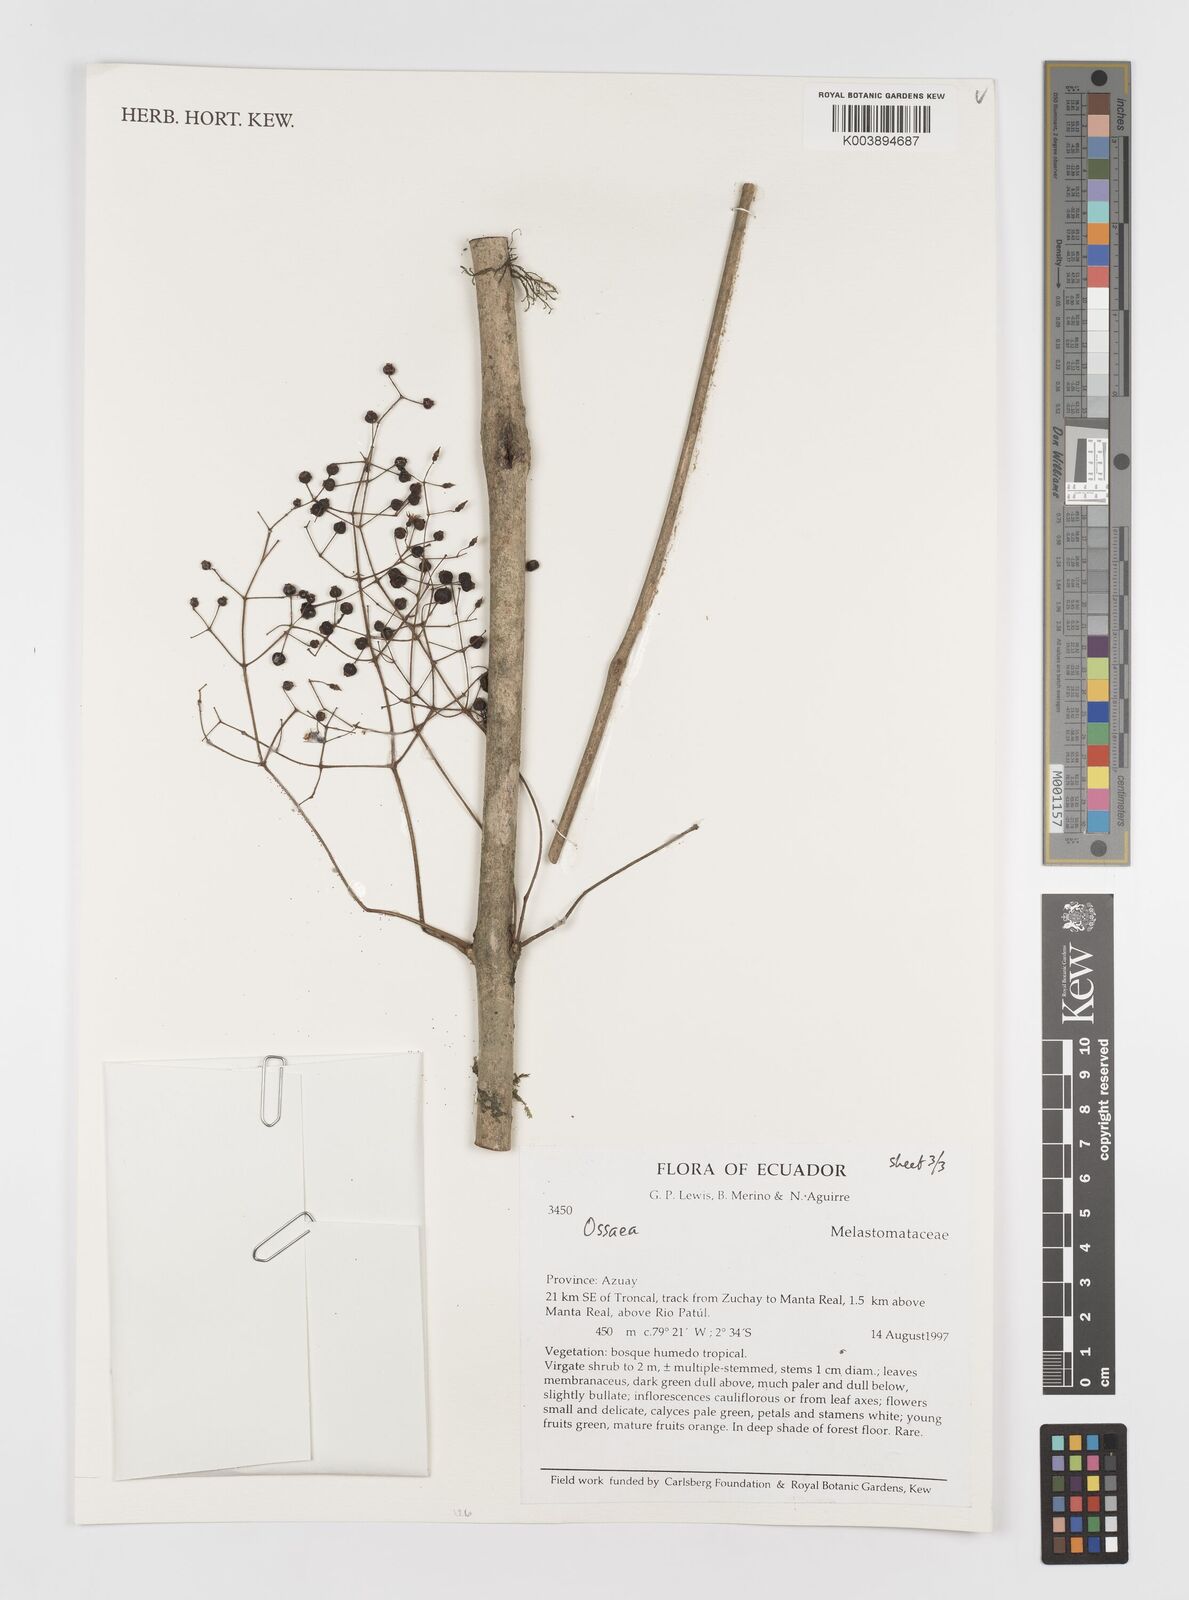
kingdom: Plantae
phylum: Tracheophyta
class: Magnoliopsida
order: Myrtales
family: Melastomataceae
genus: Ossaea
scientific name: Ossaea
